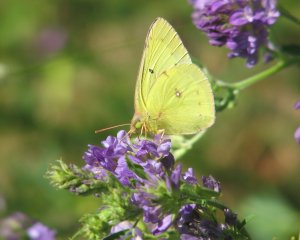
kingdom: Animalia
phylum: Arthropoda
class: Insecta
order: Lepidoptera
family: Pieridae
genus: Colias
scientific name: Colias philodice
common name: Clouded Sulphur
